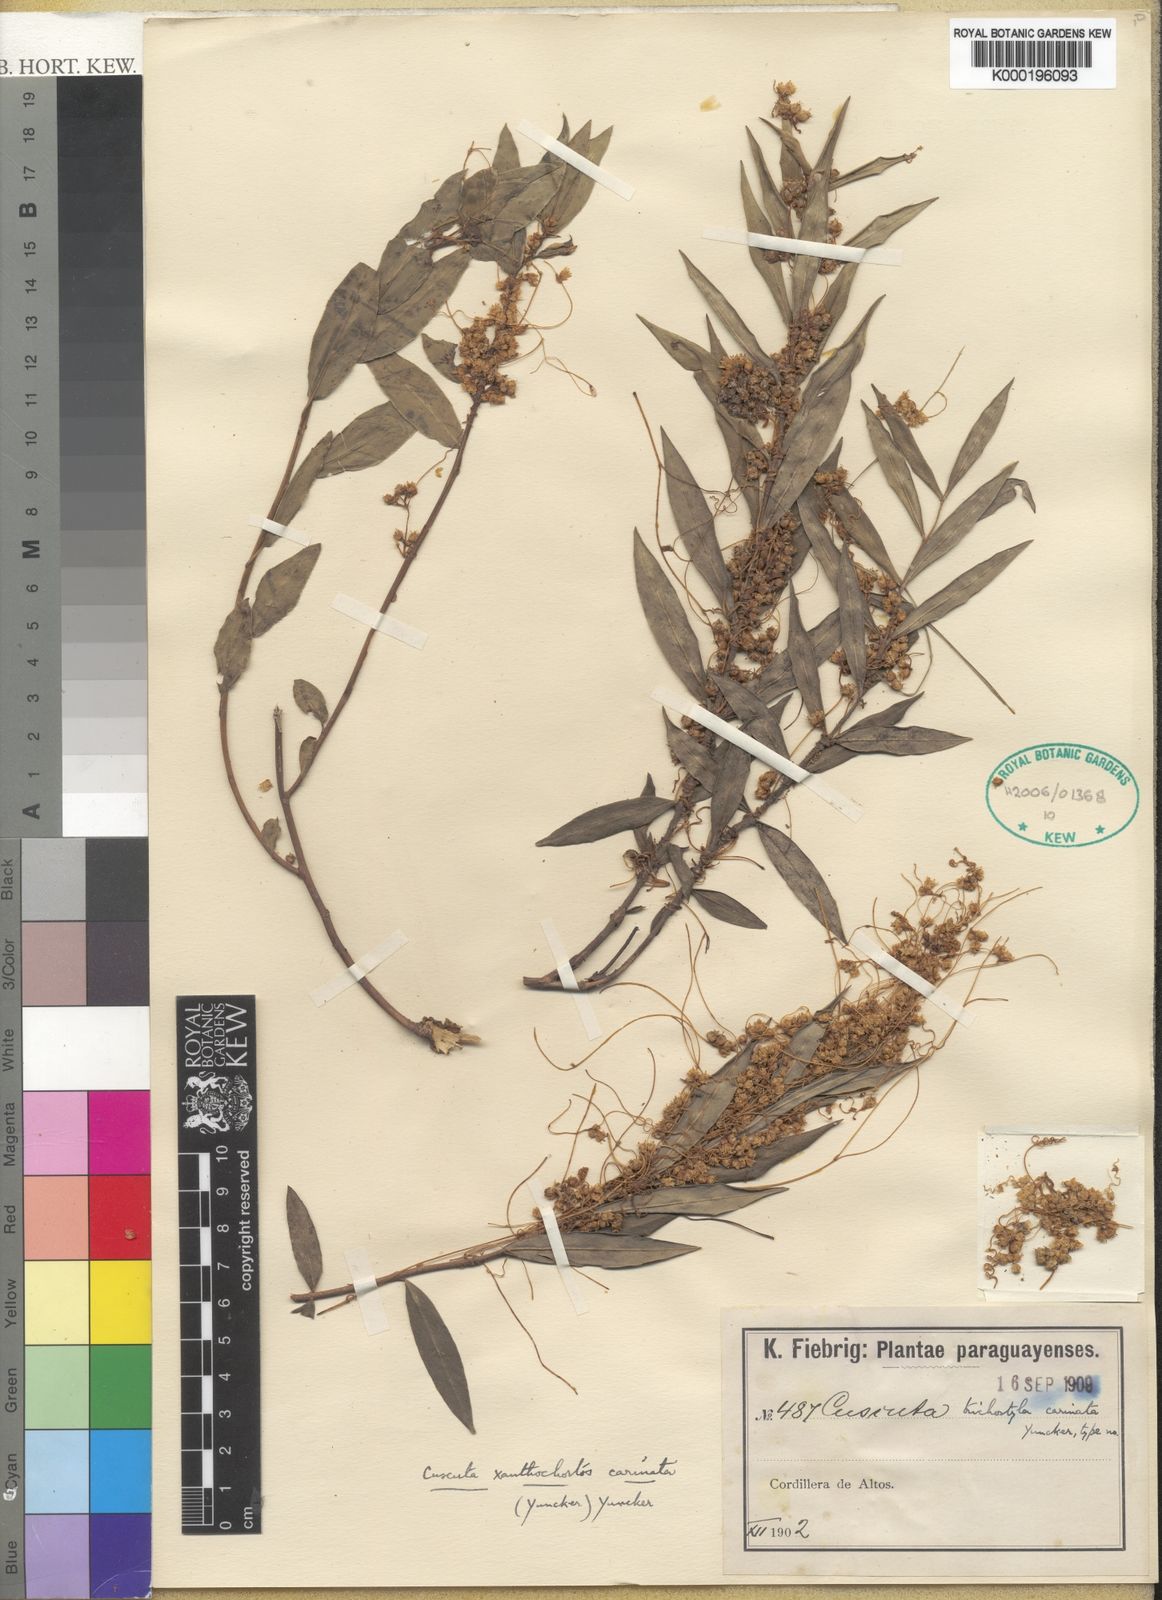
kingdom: Plantae
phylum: Tracheophyta
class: Magnoliopsida
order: Solanales
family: Convolvulaceae
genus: Cuscuta
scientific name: Cuscuta xanthochortos
